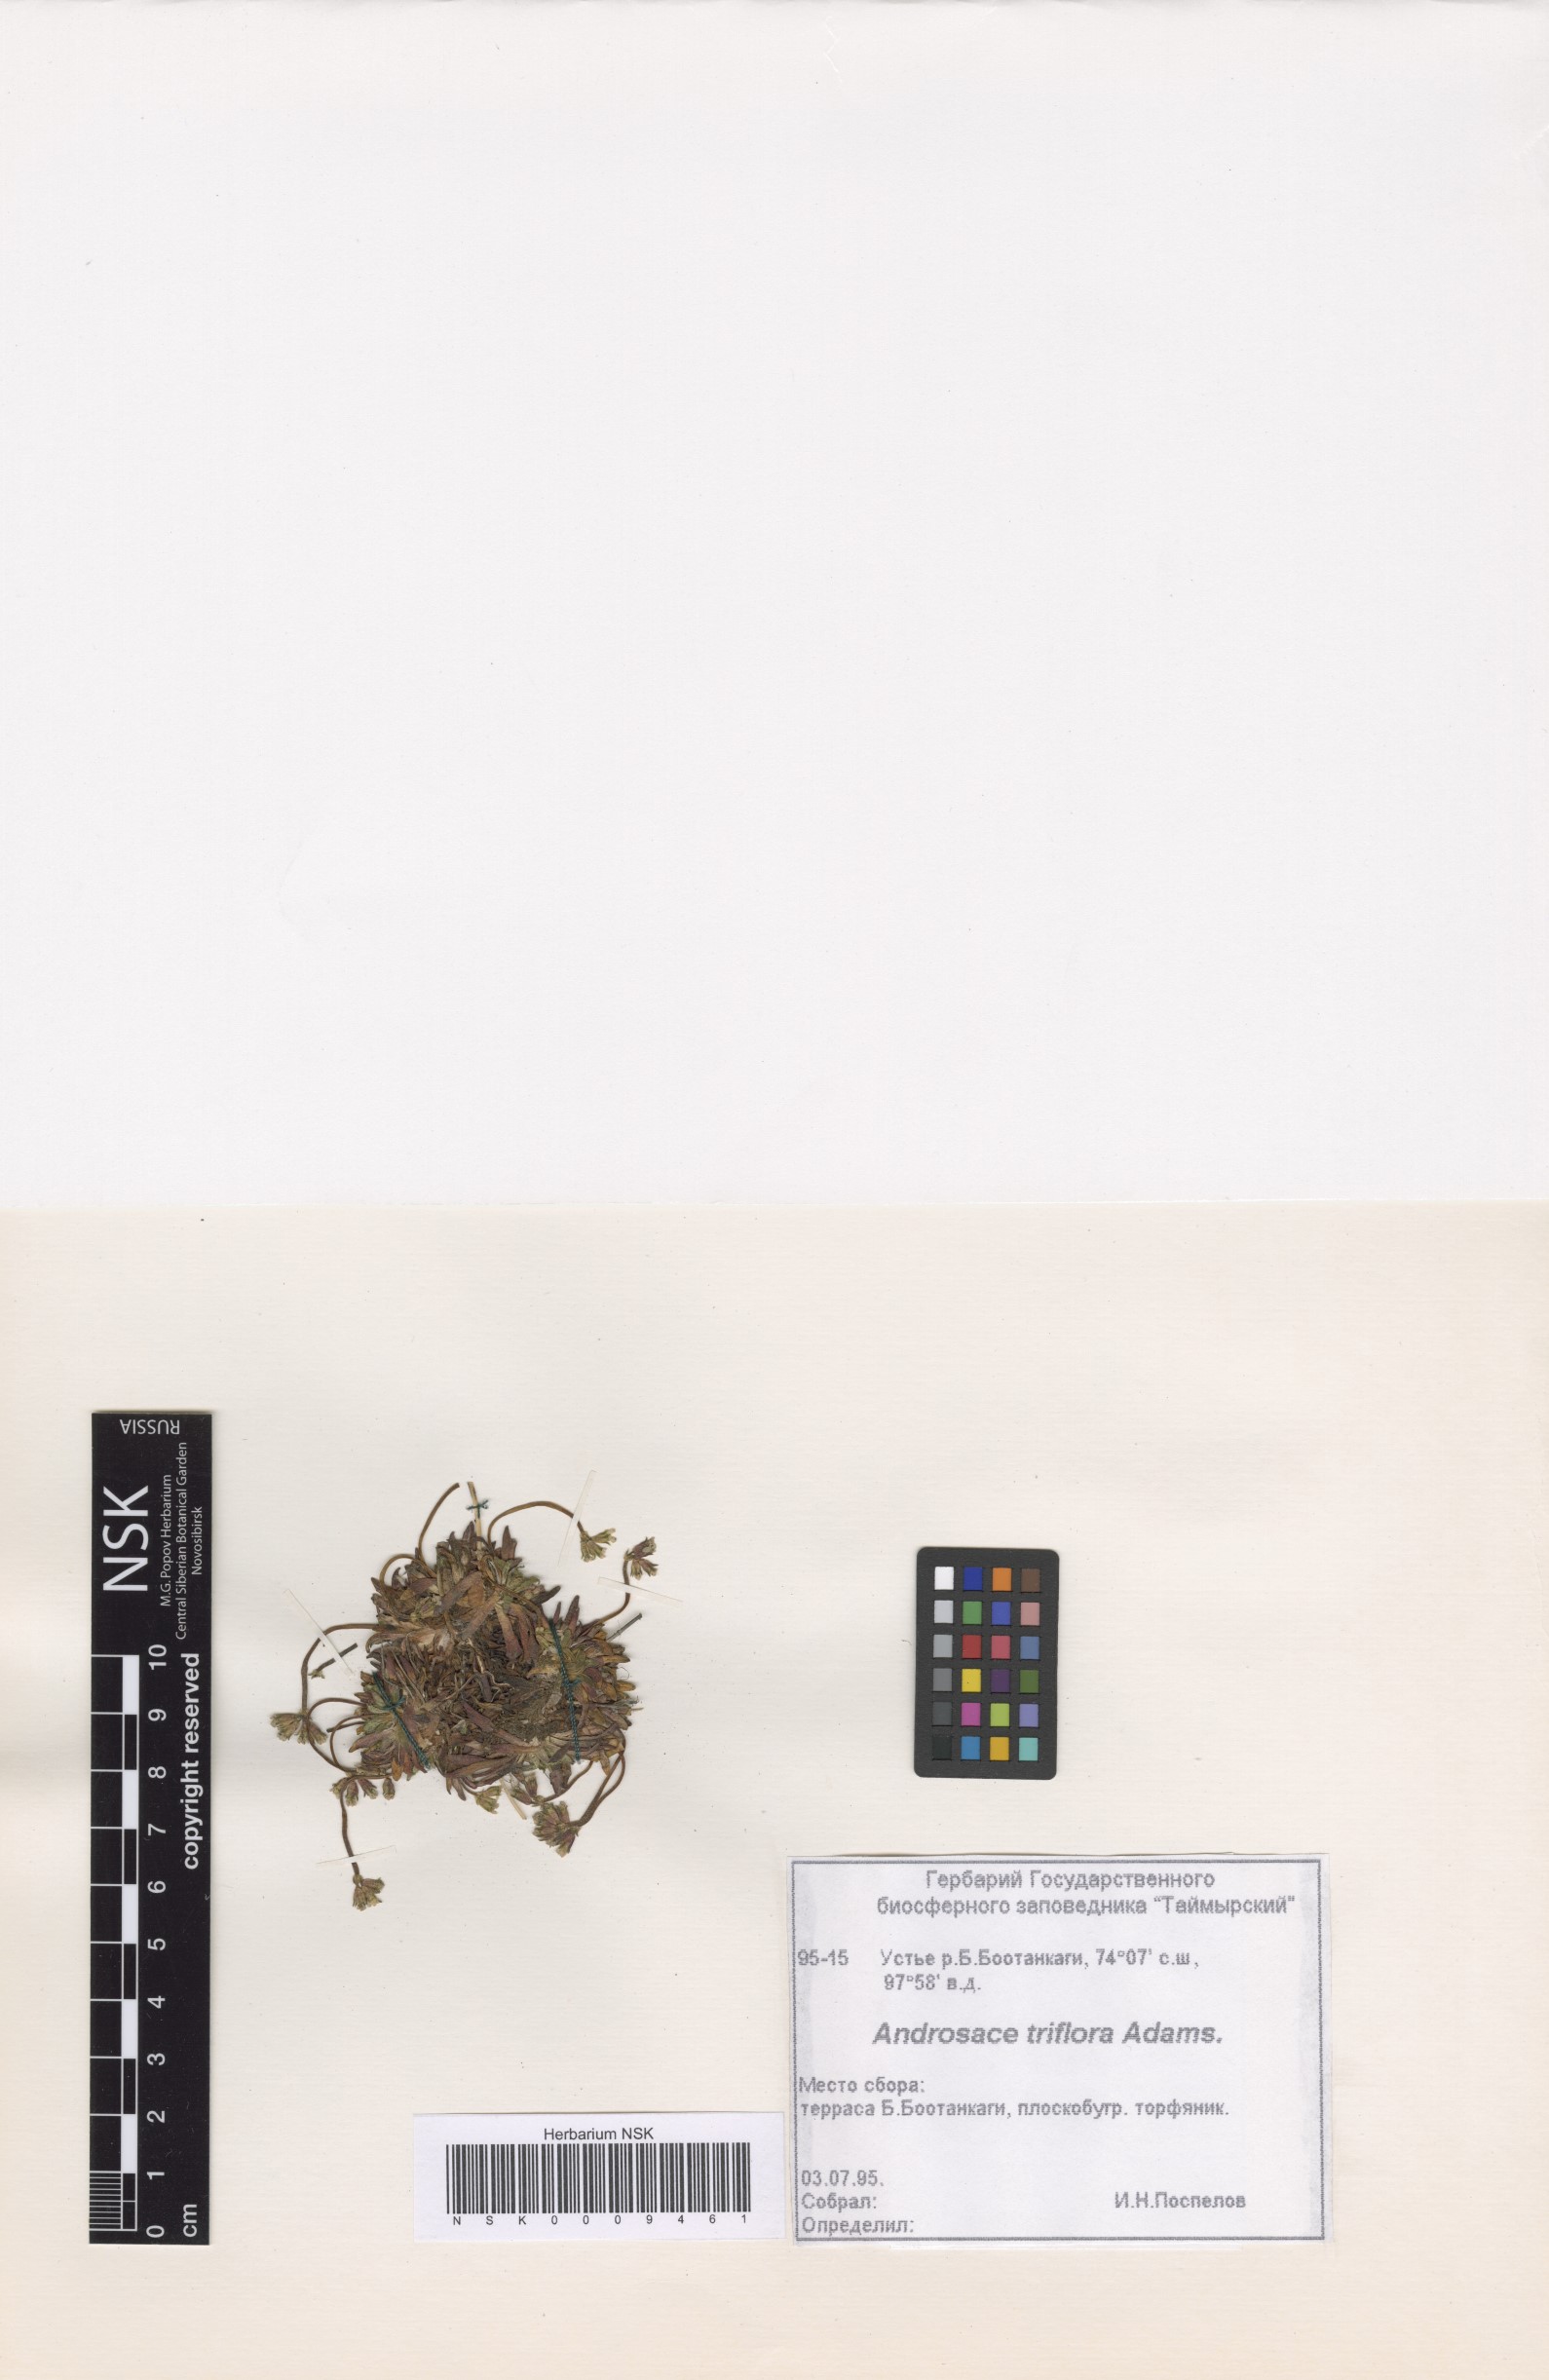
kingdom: Plantae
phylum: Tracheophyta
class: Magnoliopsida
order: Ericales
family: Primulaceae
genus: Androsace
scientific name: Androsace triflora
